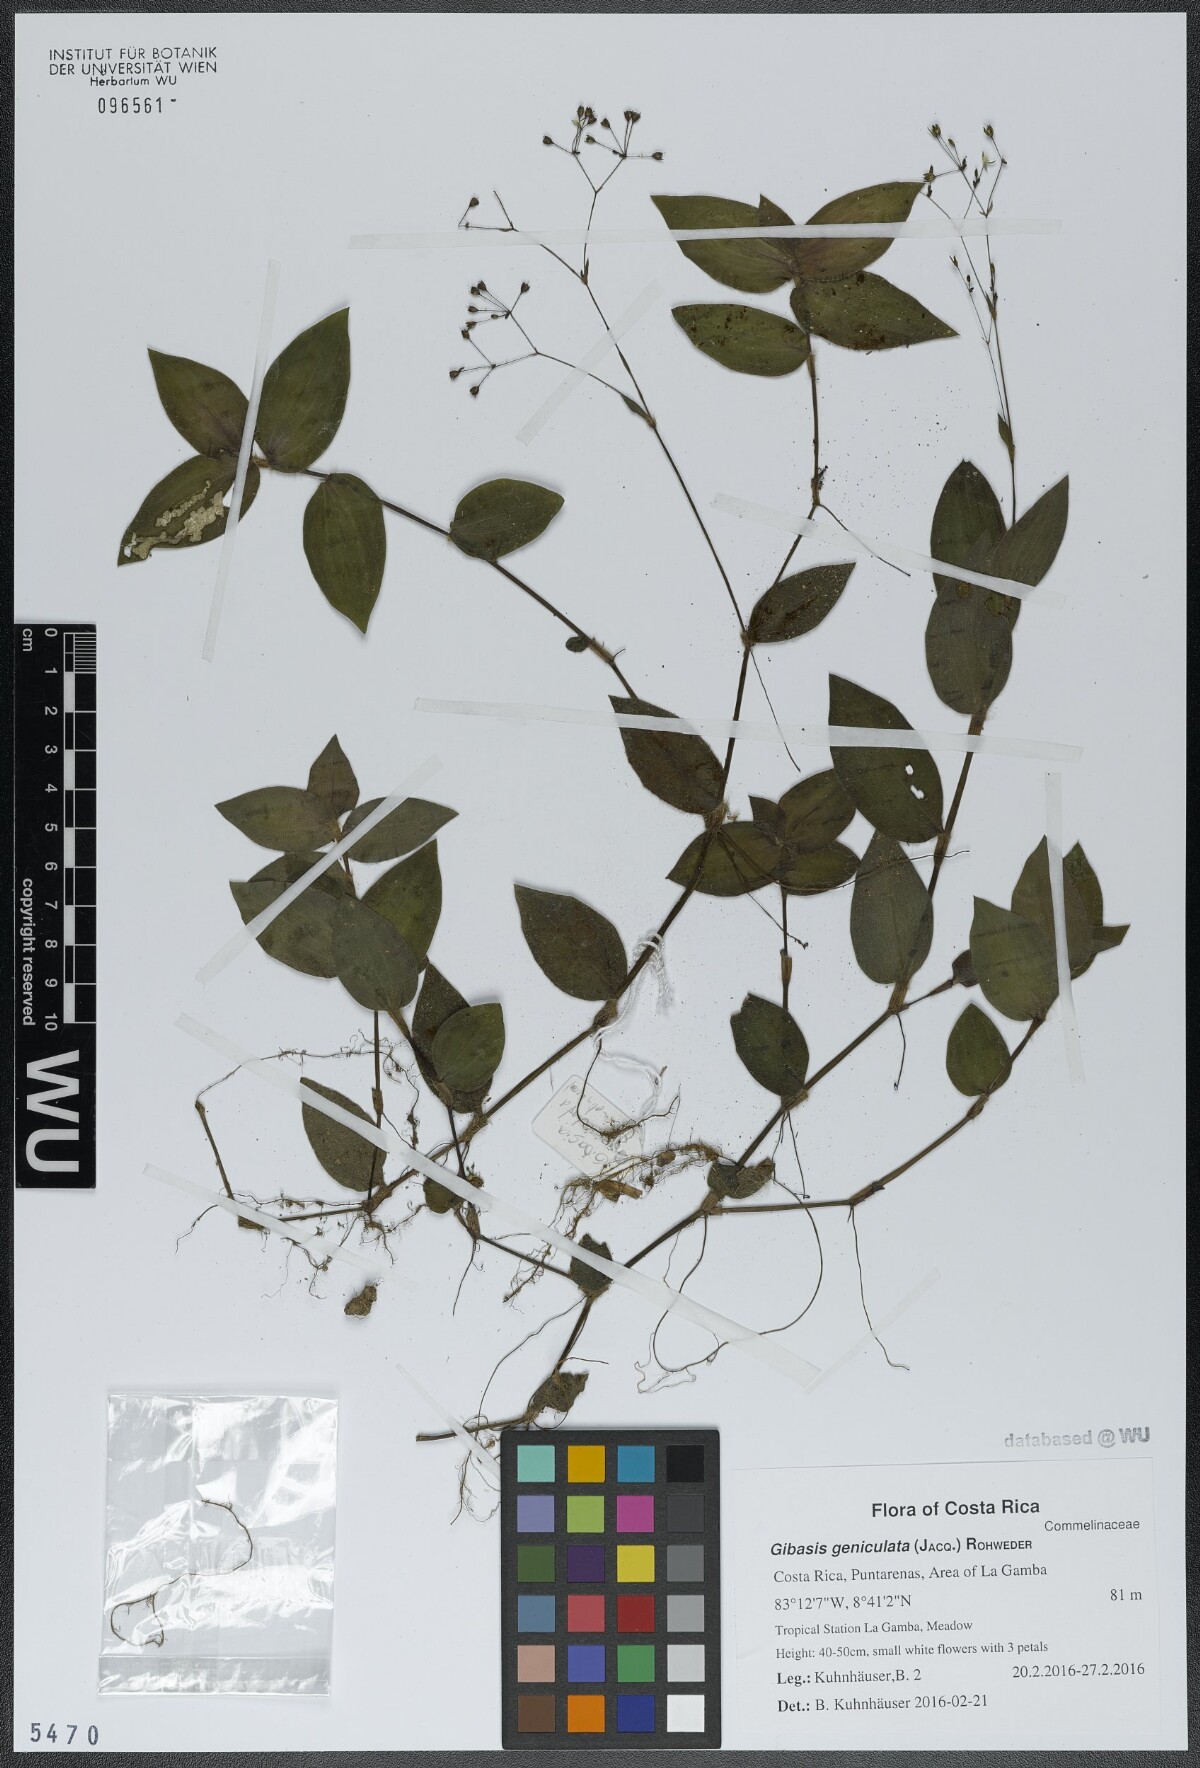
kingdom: Plantae
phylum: Tracheophyta
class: Liliopsida
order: Commelinales
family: Commelinaceae
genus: Gibasis
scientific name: Gibasis geniculata
